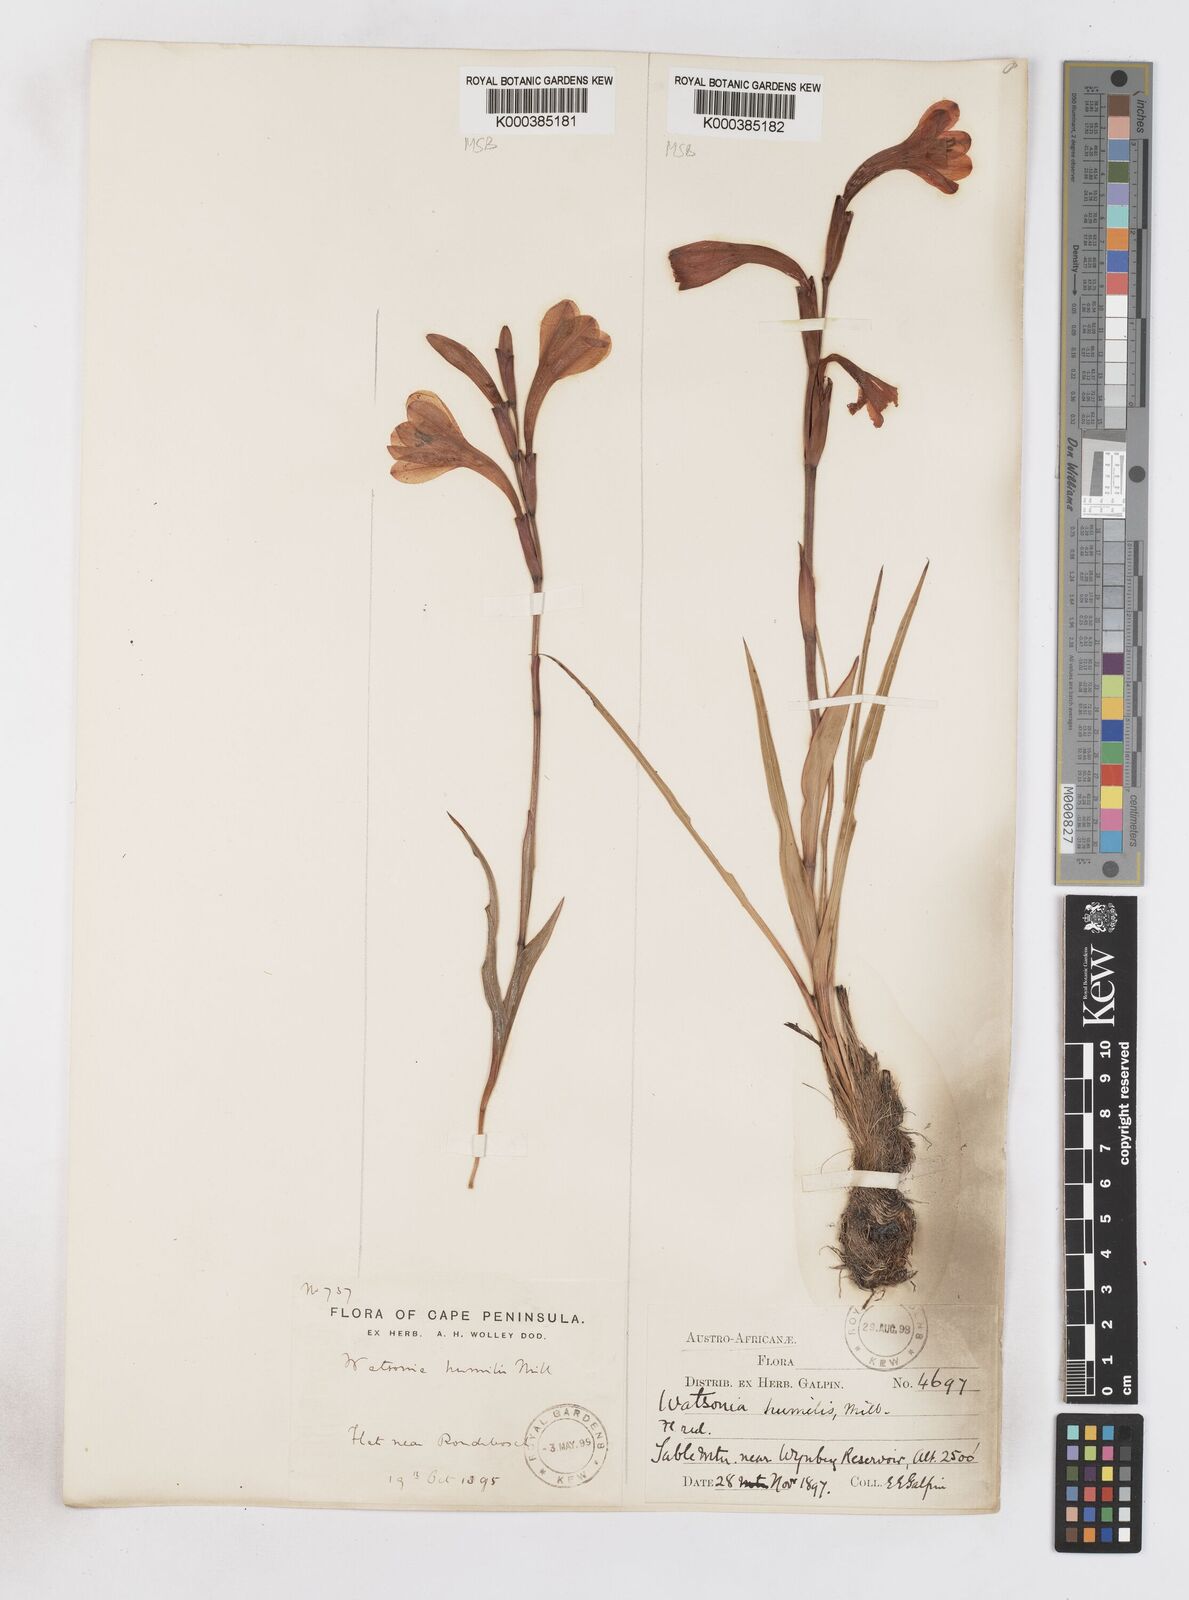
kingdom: Plantae
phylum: Tracheophyta
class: Liliopsida
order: Asparagales
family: Iridaceae
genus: Watsonia
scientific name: Watsonia humilis
